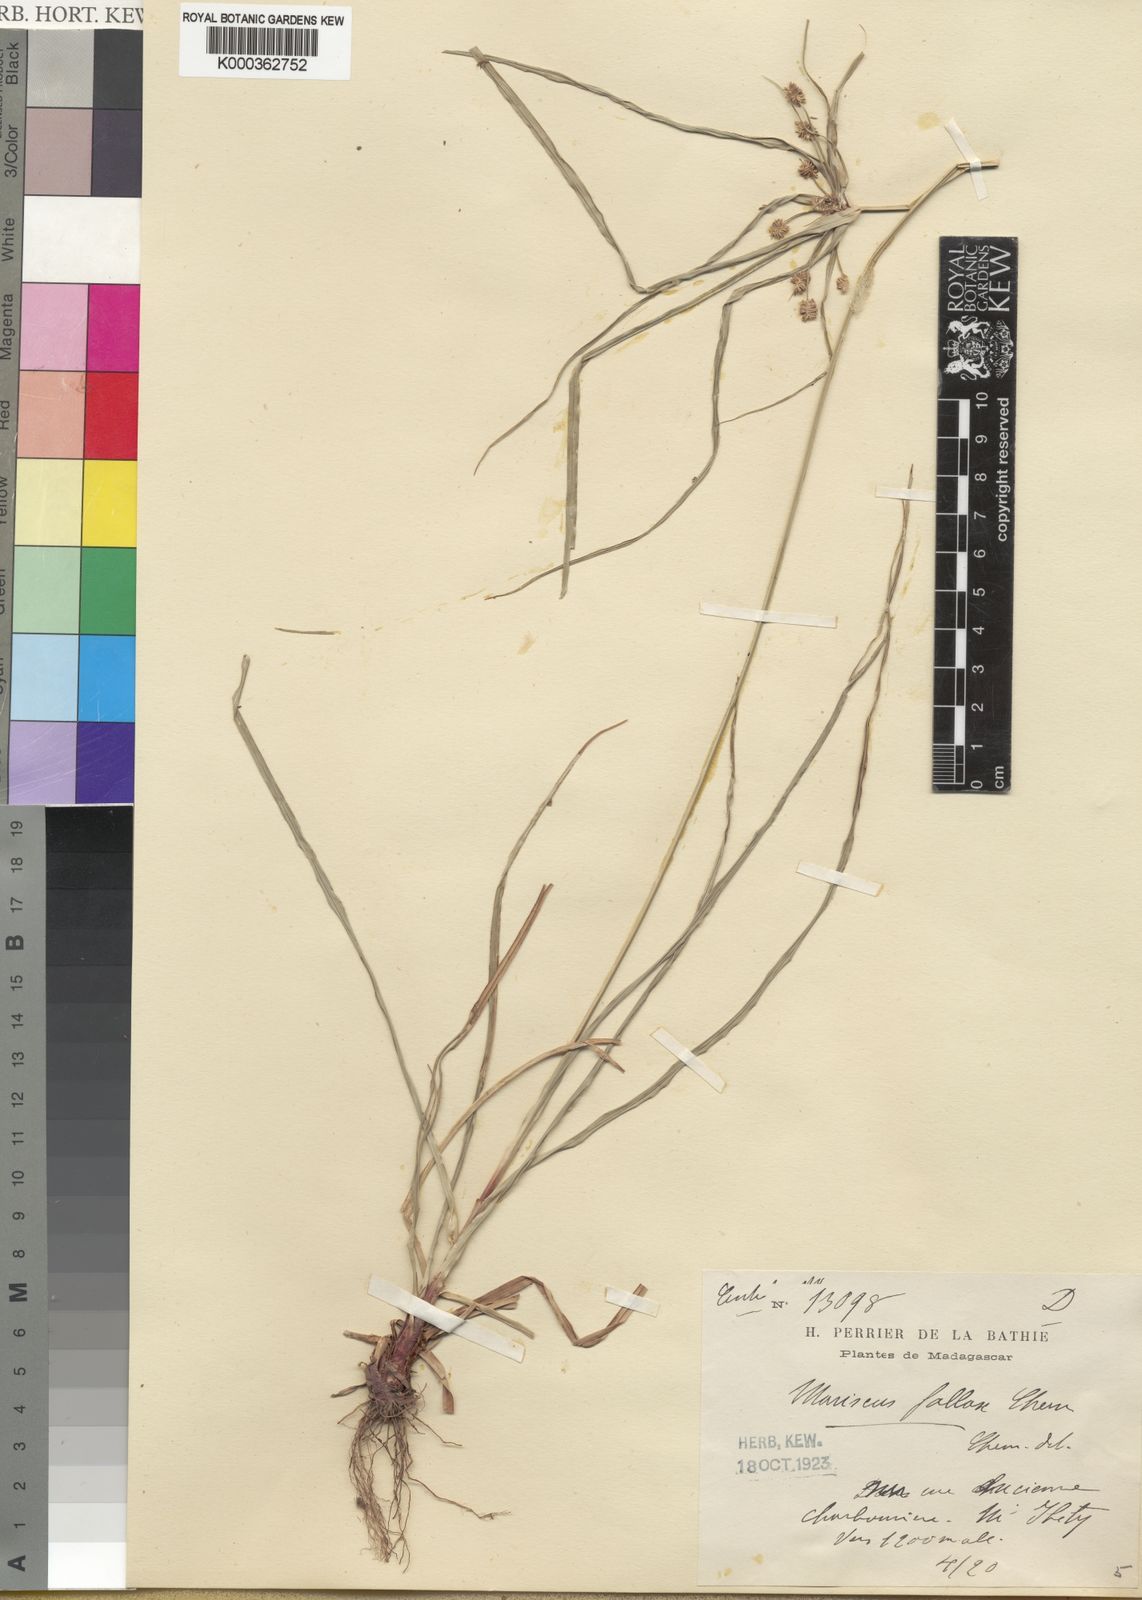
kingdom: Plantae
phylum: Tracheophyta
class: Liliopsida
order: Poales
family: Cyperaceae
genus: Cyperus
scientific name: Cyperus impubes
